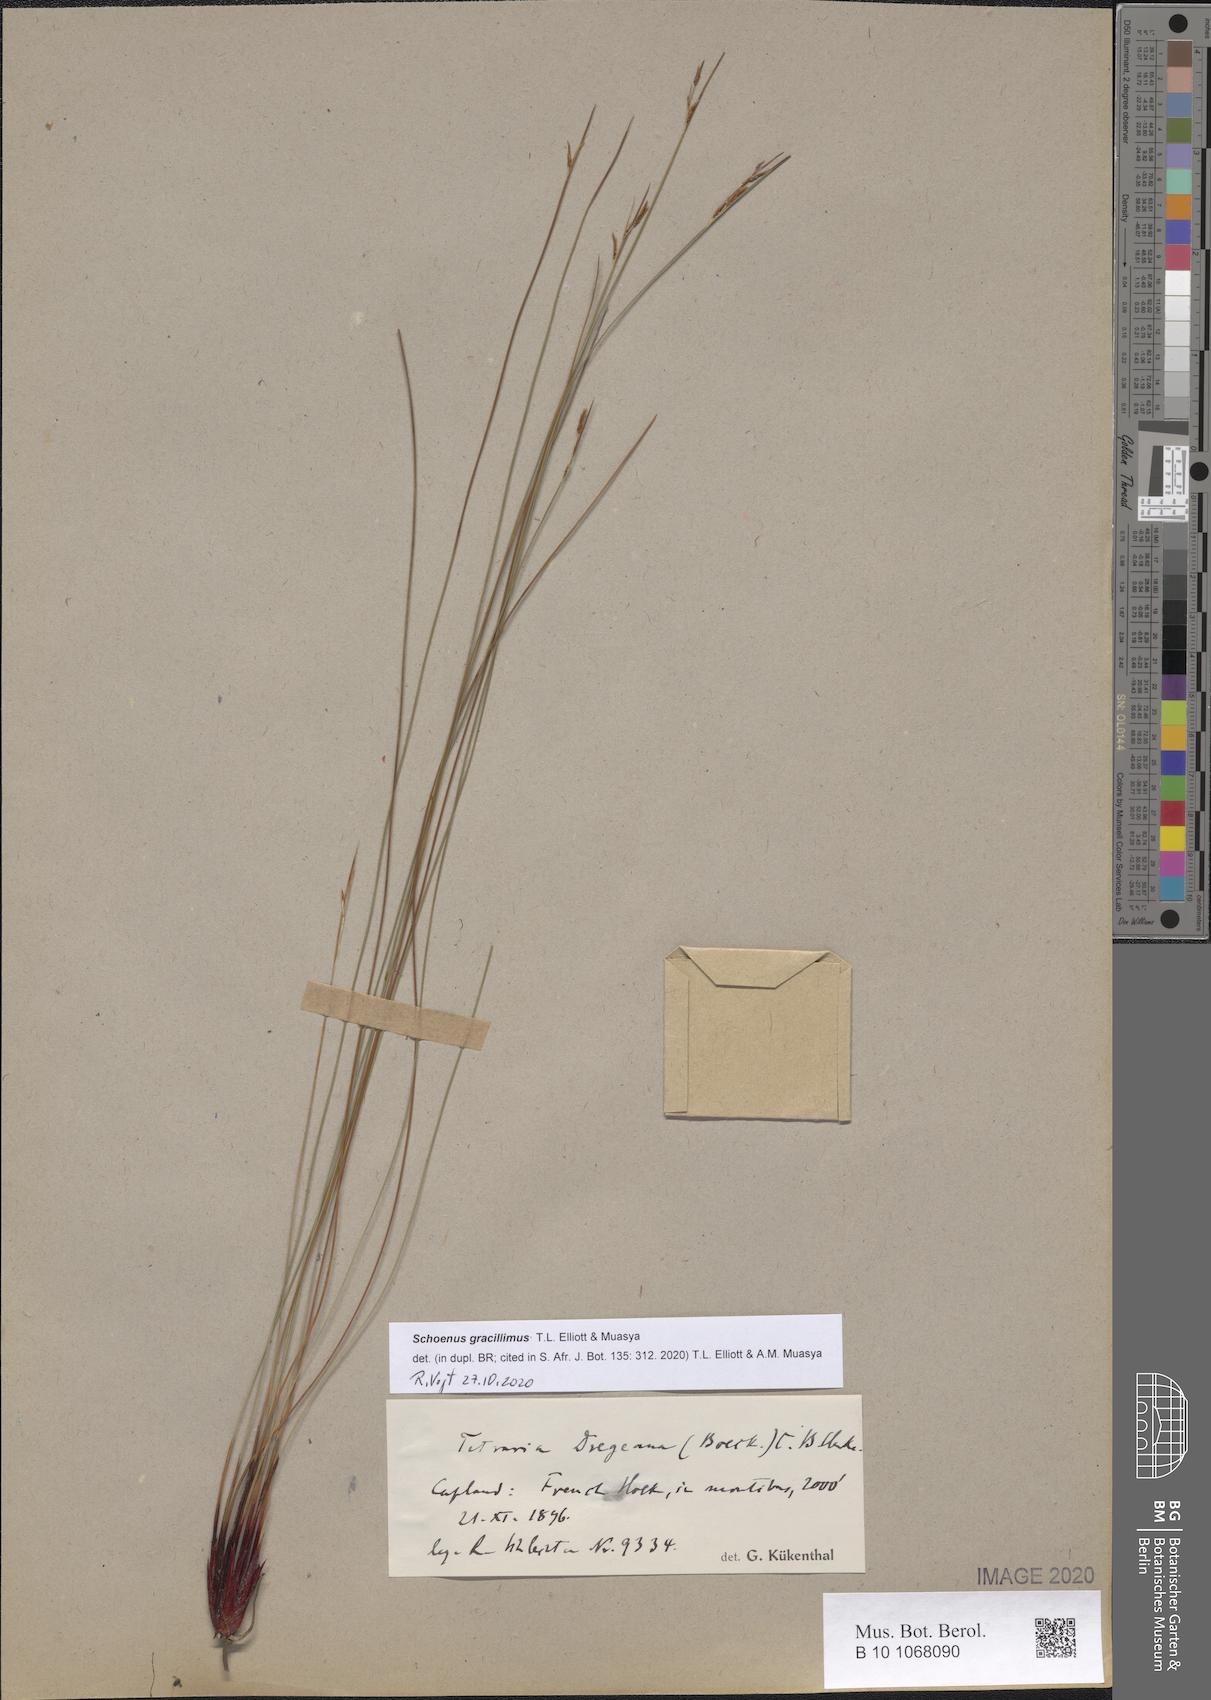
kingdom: Plantae
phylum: Tracheophyta
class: Liliopsida
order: Poales
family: Cyperaceae
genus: Schoenus
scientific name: Schoenus gracillimus
